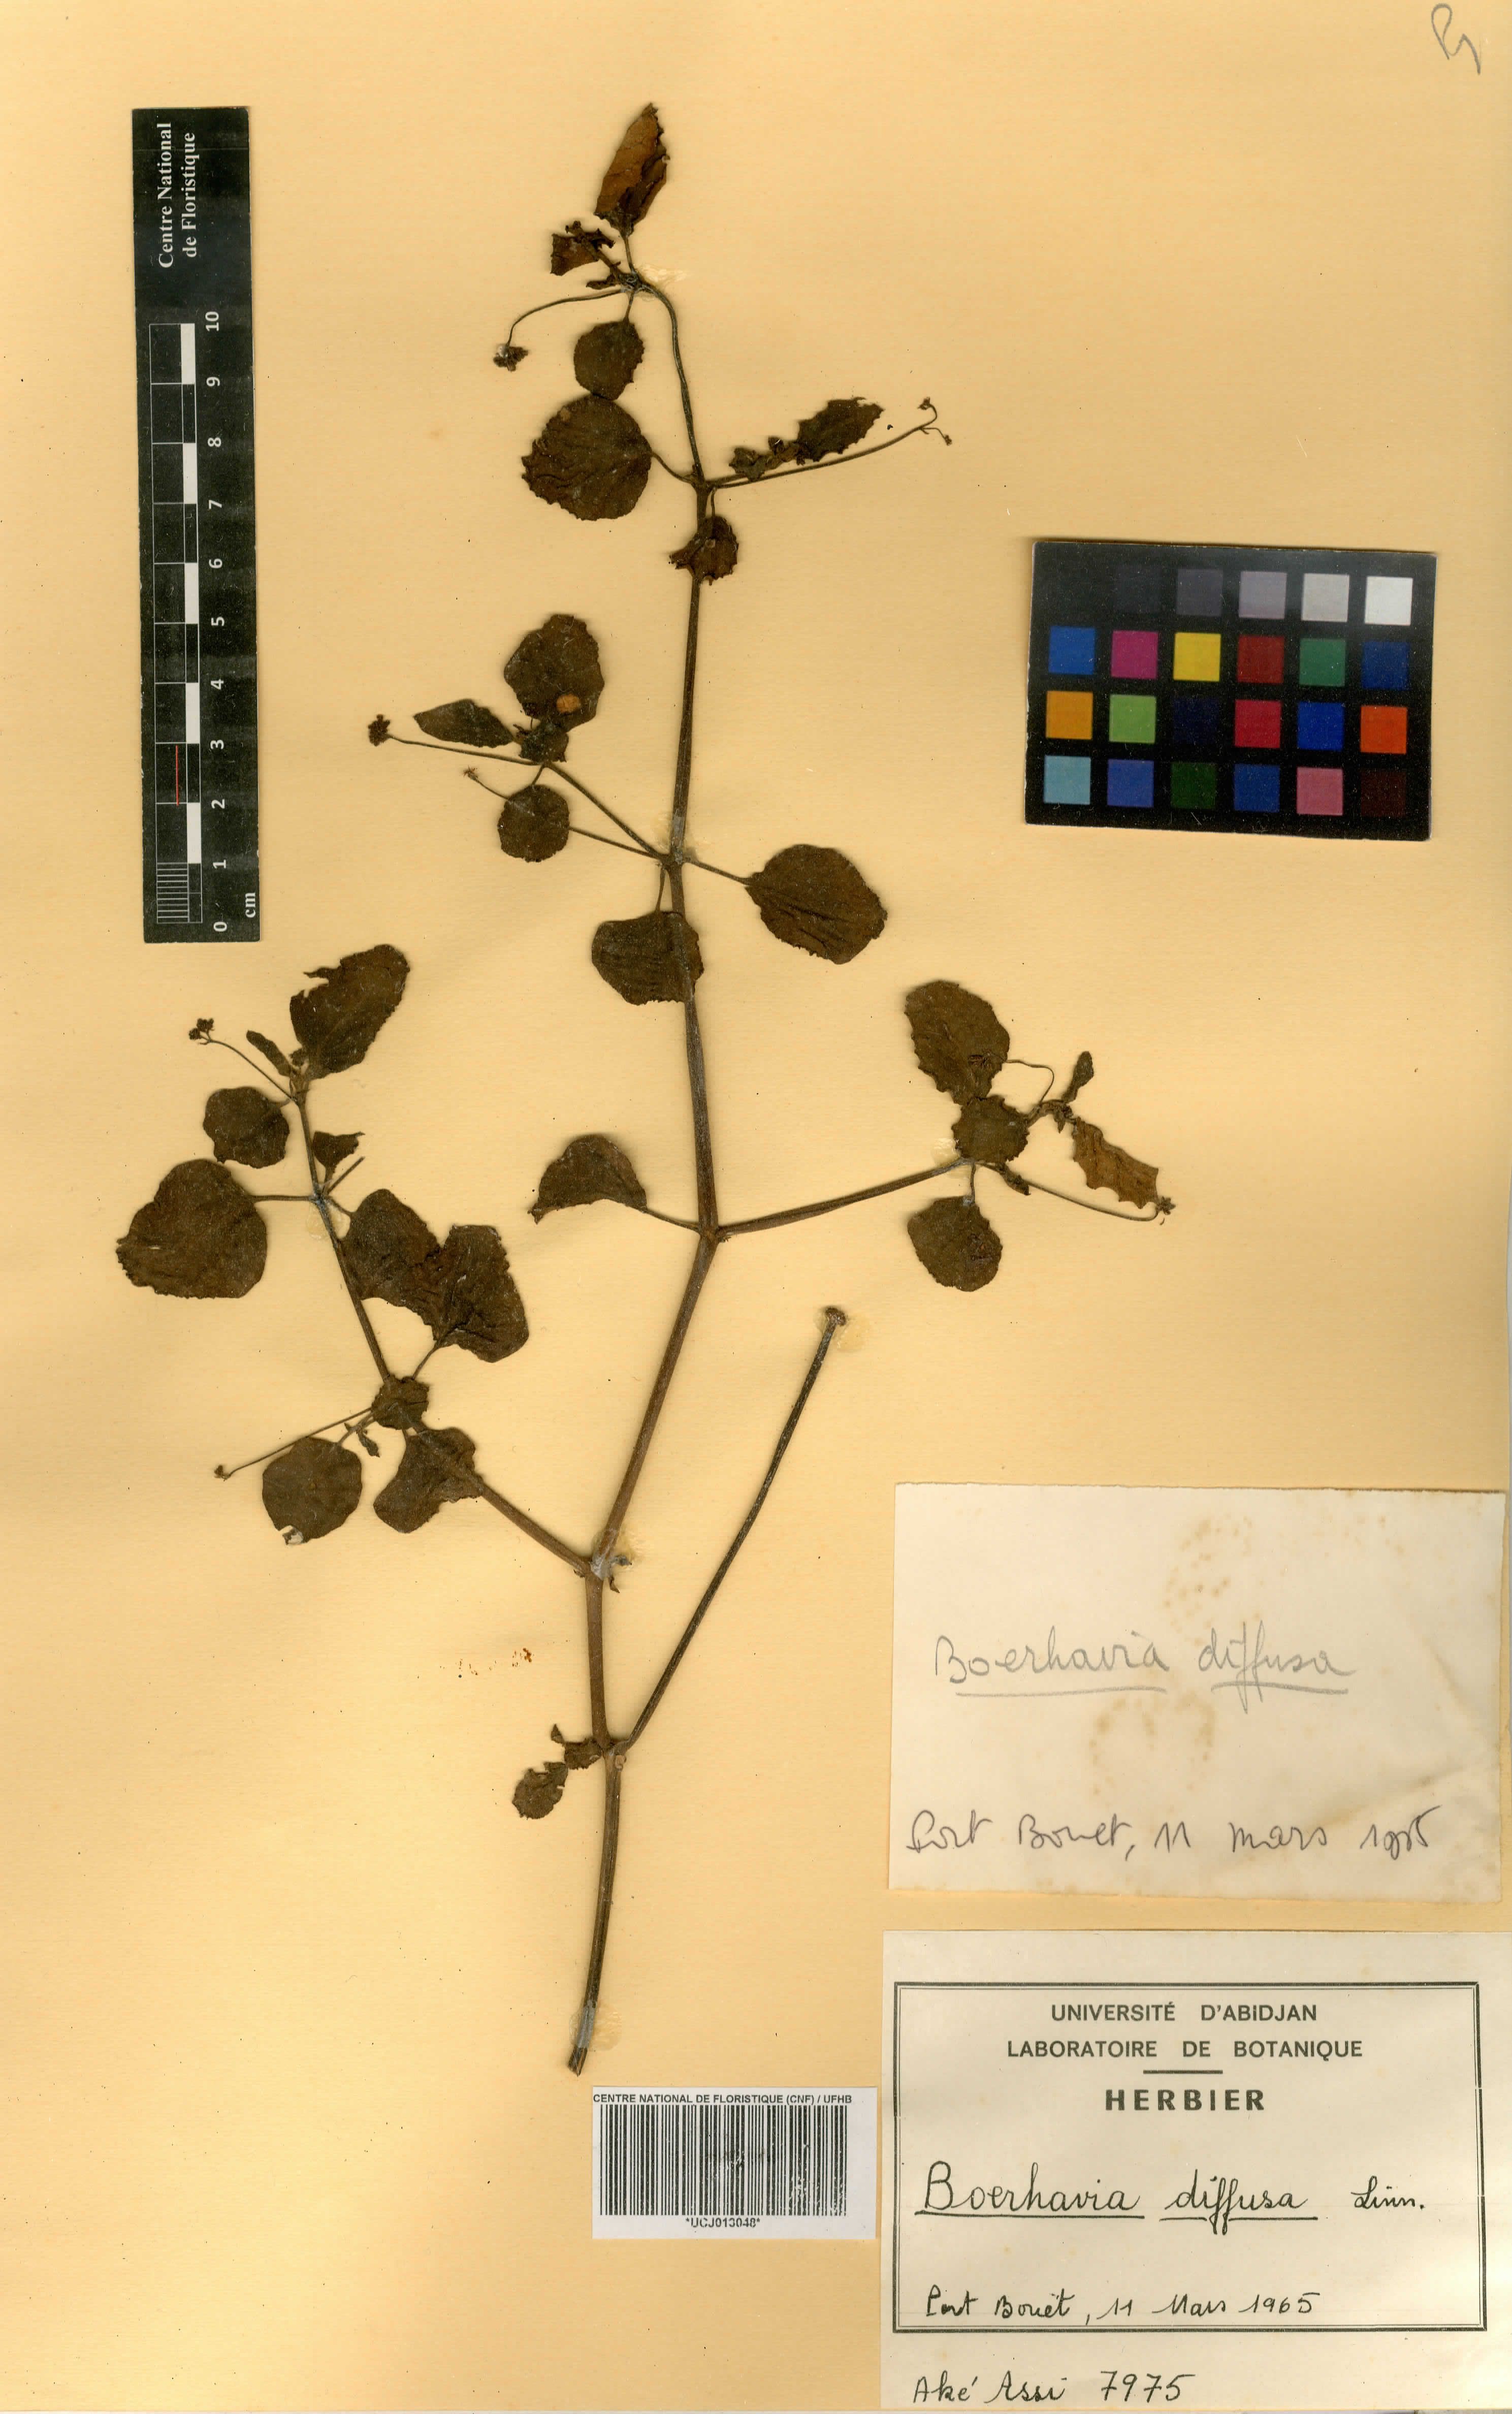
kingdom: Plantae
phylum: Tracheophyta
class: Magnoliopsida
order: Caryophyllales
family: Nyctaginaceae
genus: Boerhavia
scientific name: Boerhavia diffusa
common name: Red spiderling
